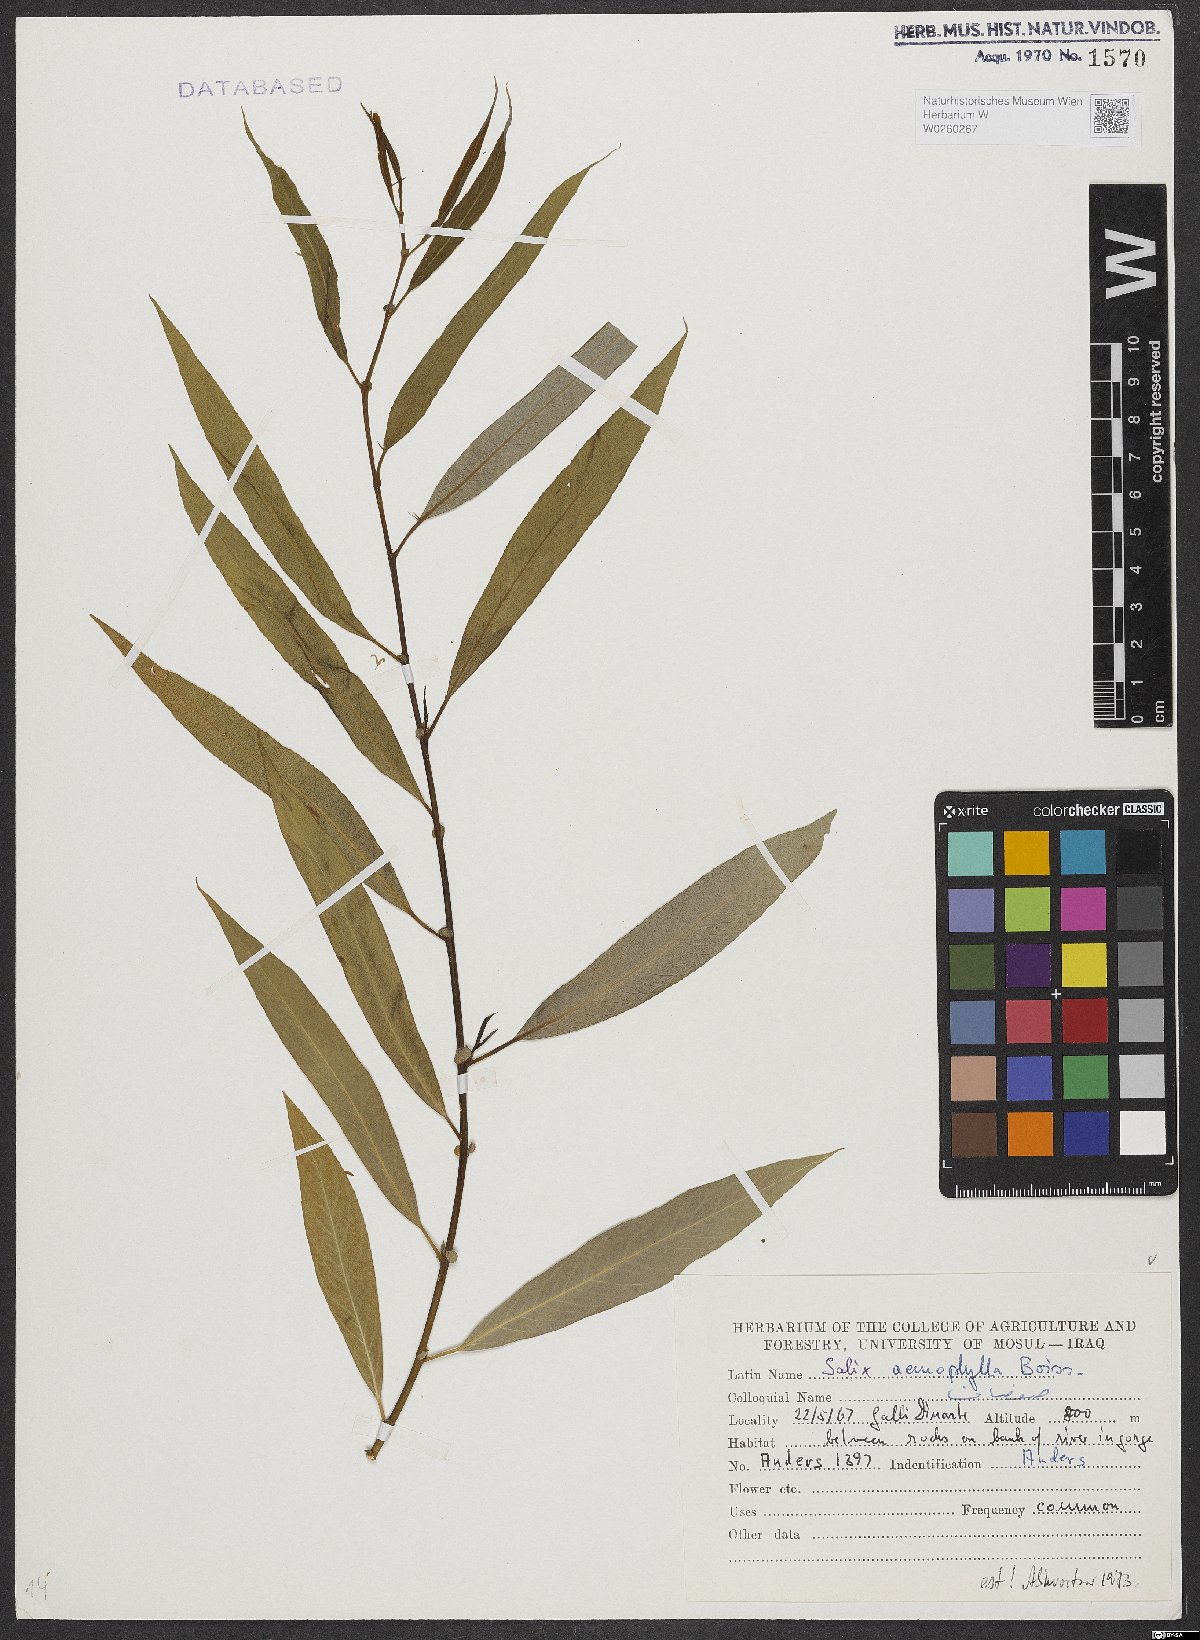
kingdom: Plantae
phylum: Tracheophyta
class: Magnoliopsida
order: Malpighiales
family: Salicaceae
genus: Salix
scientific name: Salix acmophylla
